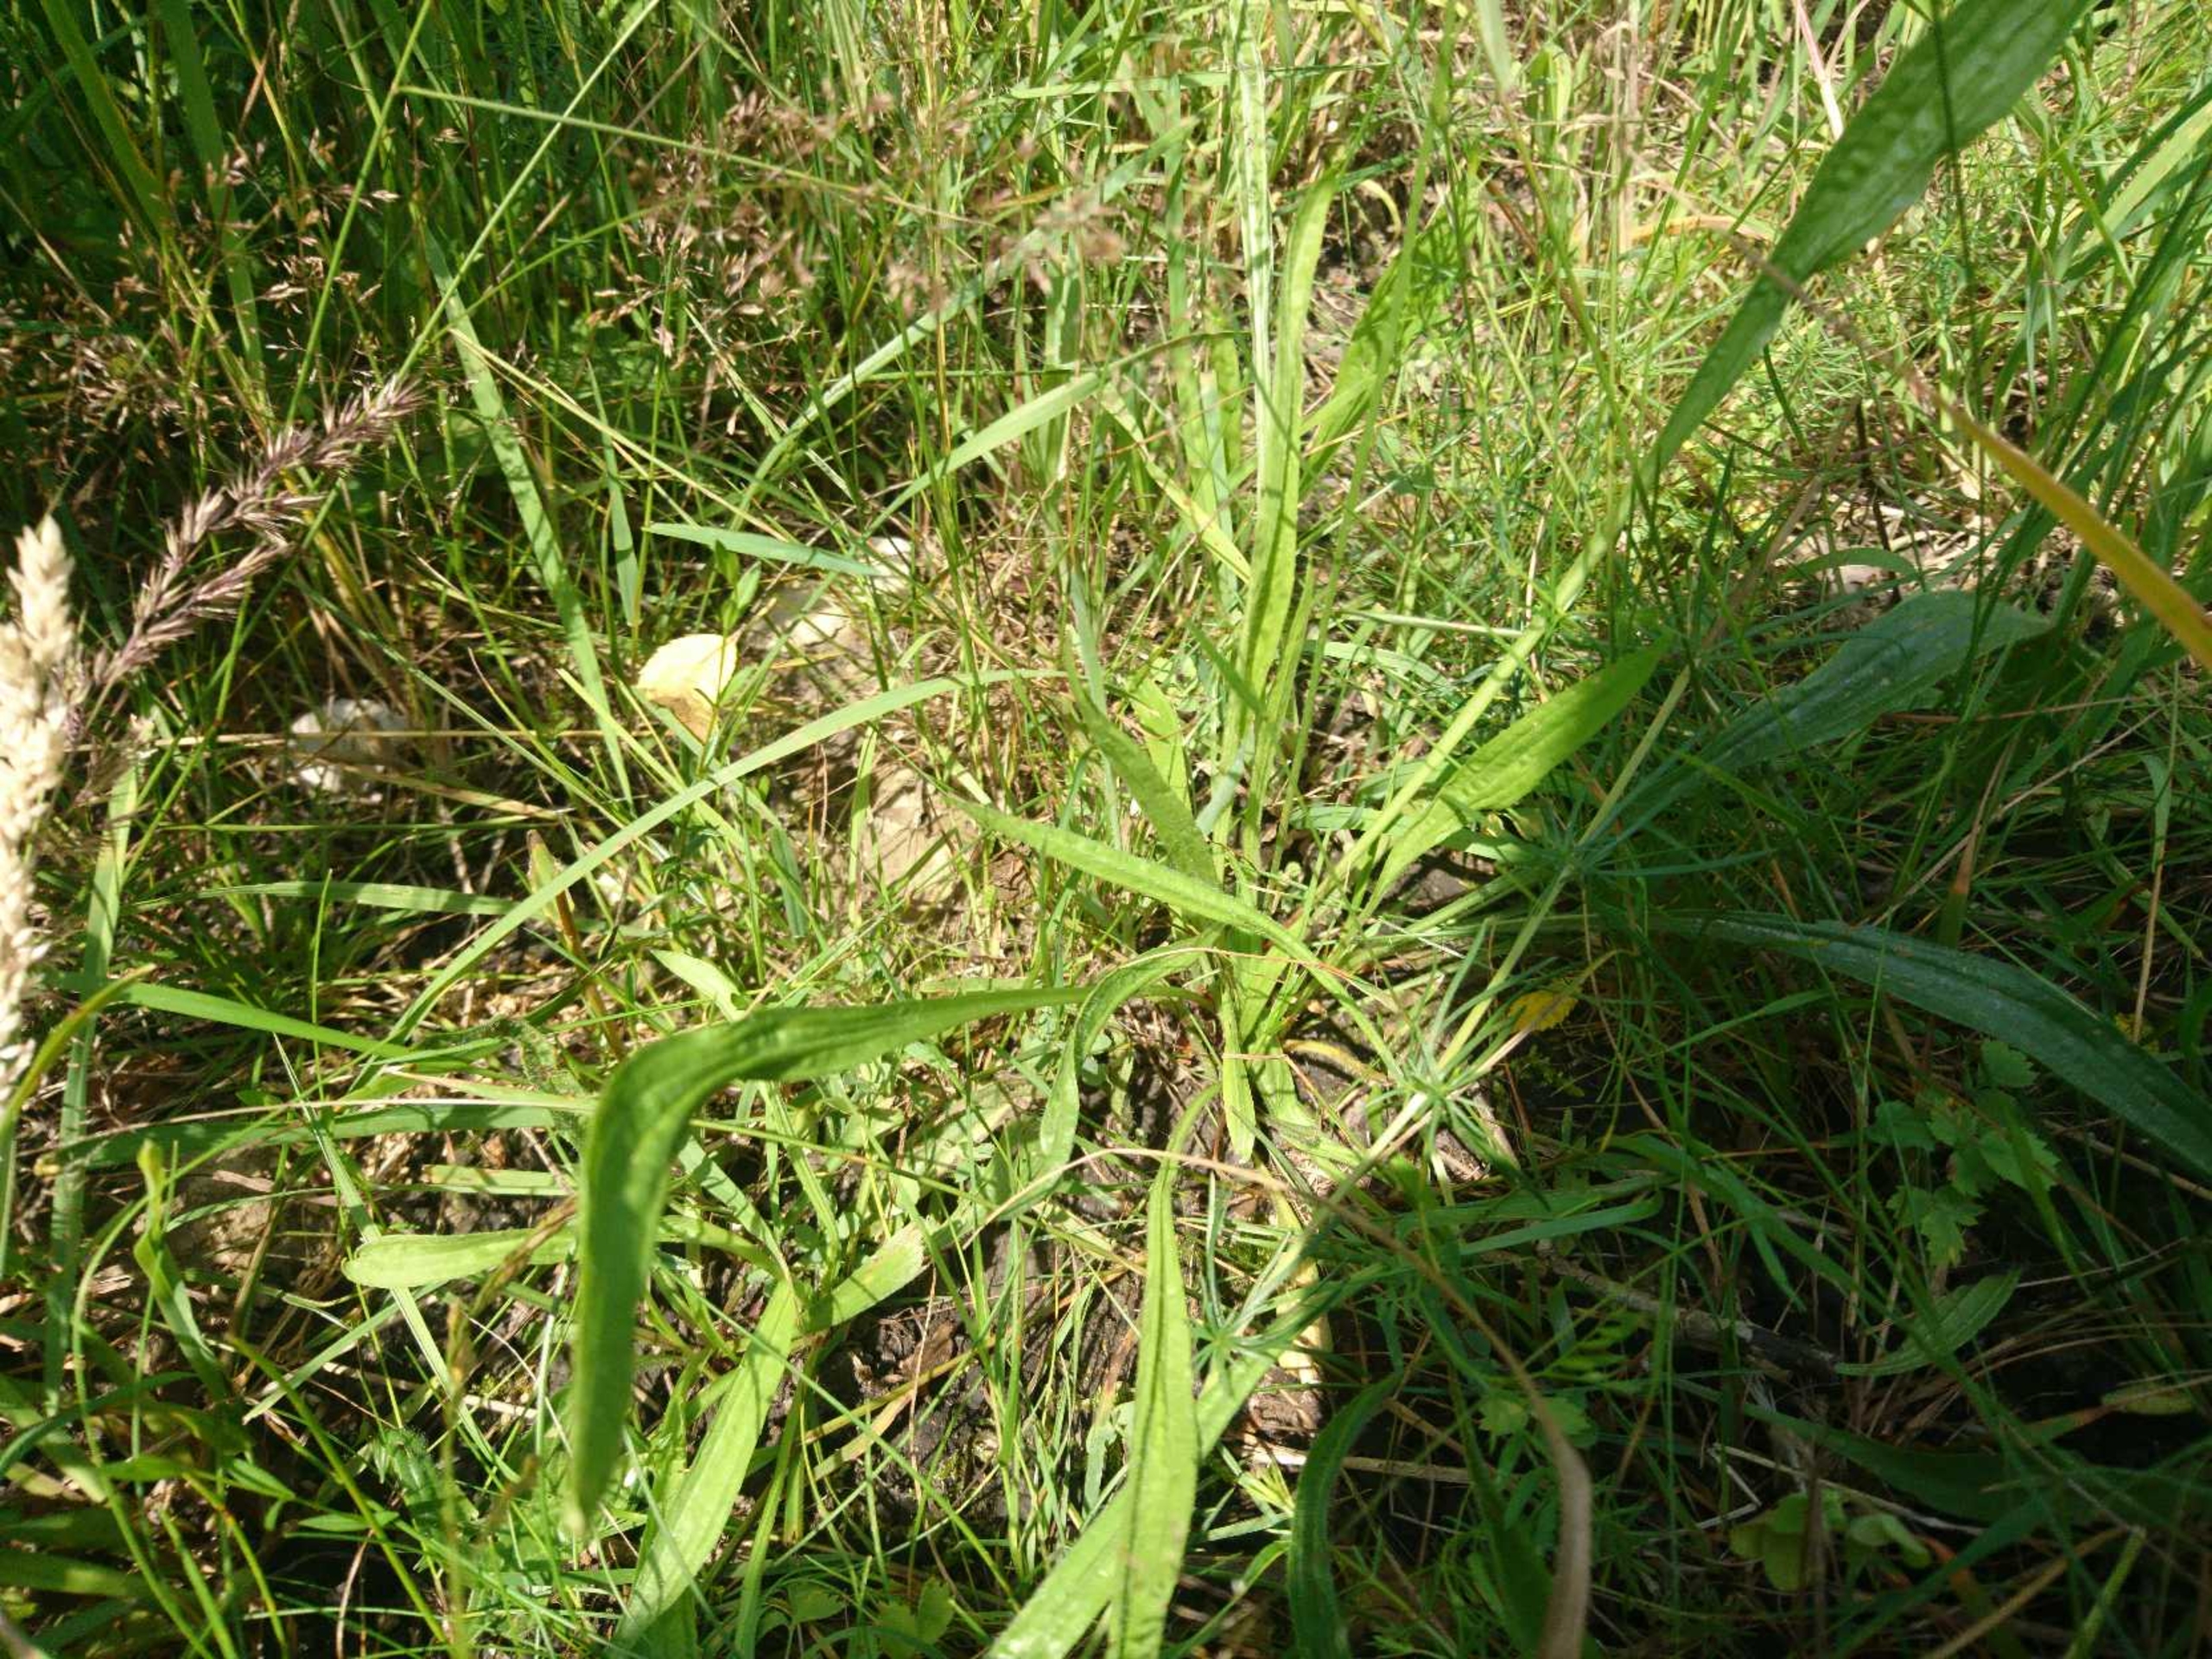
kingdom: Plantae
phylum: Tracheophyta
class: Magnoliopsida
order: Lamiales
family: Plantaginaceae
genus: Plantago
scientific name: Plantago lanceolata
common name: Lancet-vejbred
